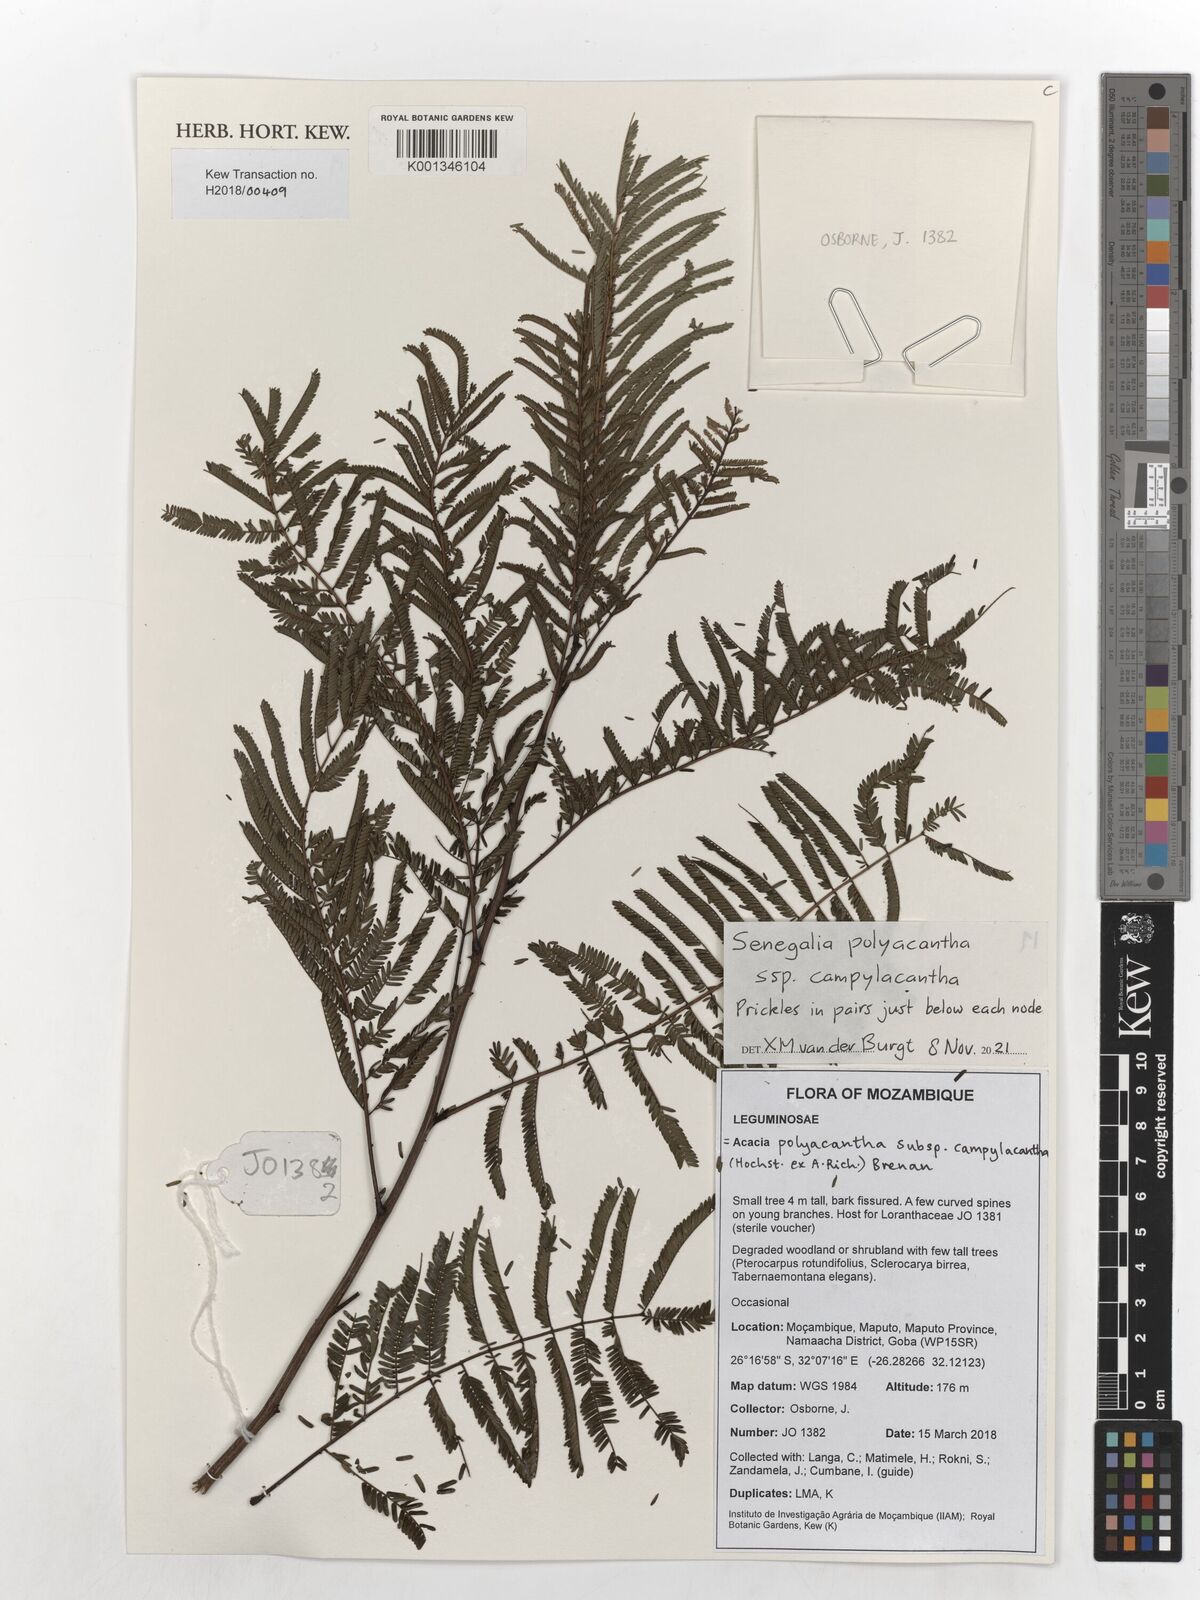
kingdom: Plantae
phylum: Tracheophyta
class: Magnoliopsida
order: Fabales
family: Fabaceae
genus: Senegalia
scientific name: Senegalia polyacantha
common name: Whitethorn
